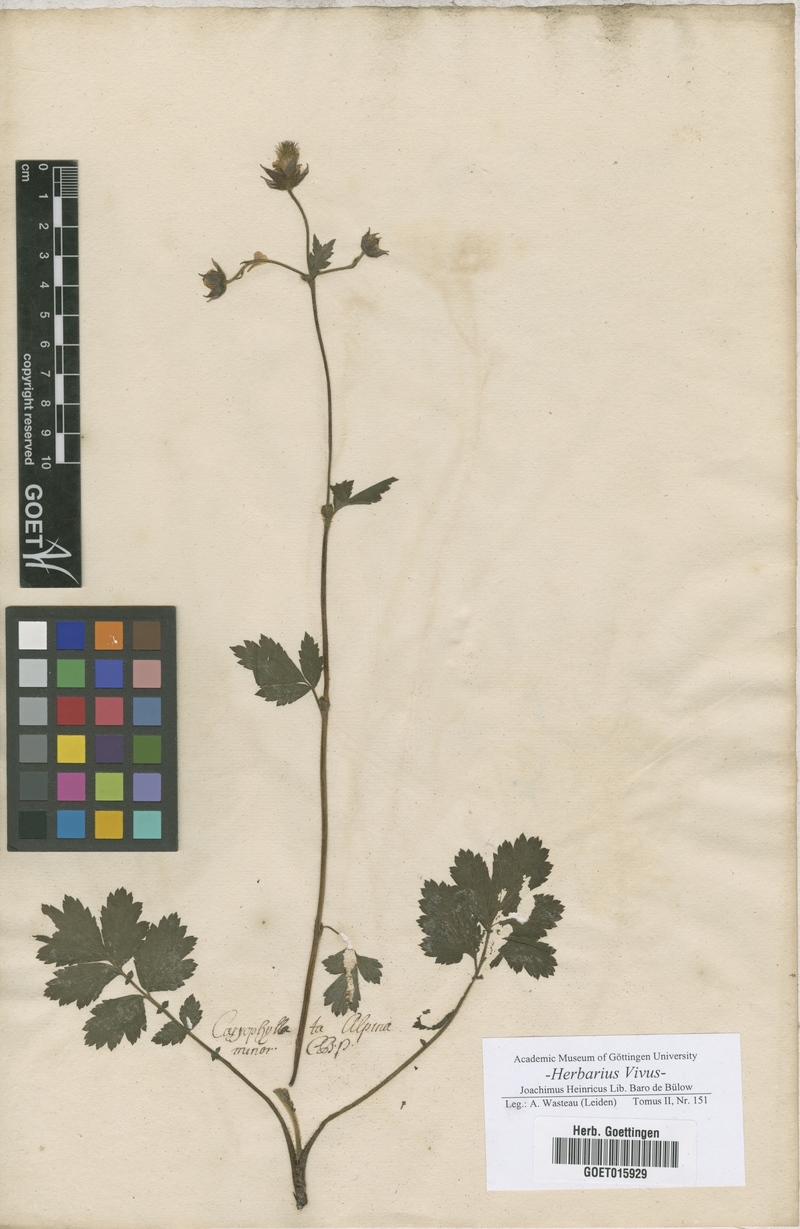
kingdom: Plantae
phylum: Tracheophyta
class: Magnoliopsida
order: Rosales
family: Rosaceae
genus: Geum
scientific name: Geum montanum
